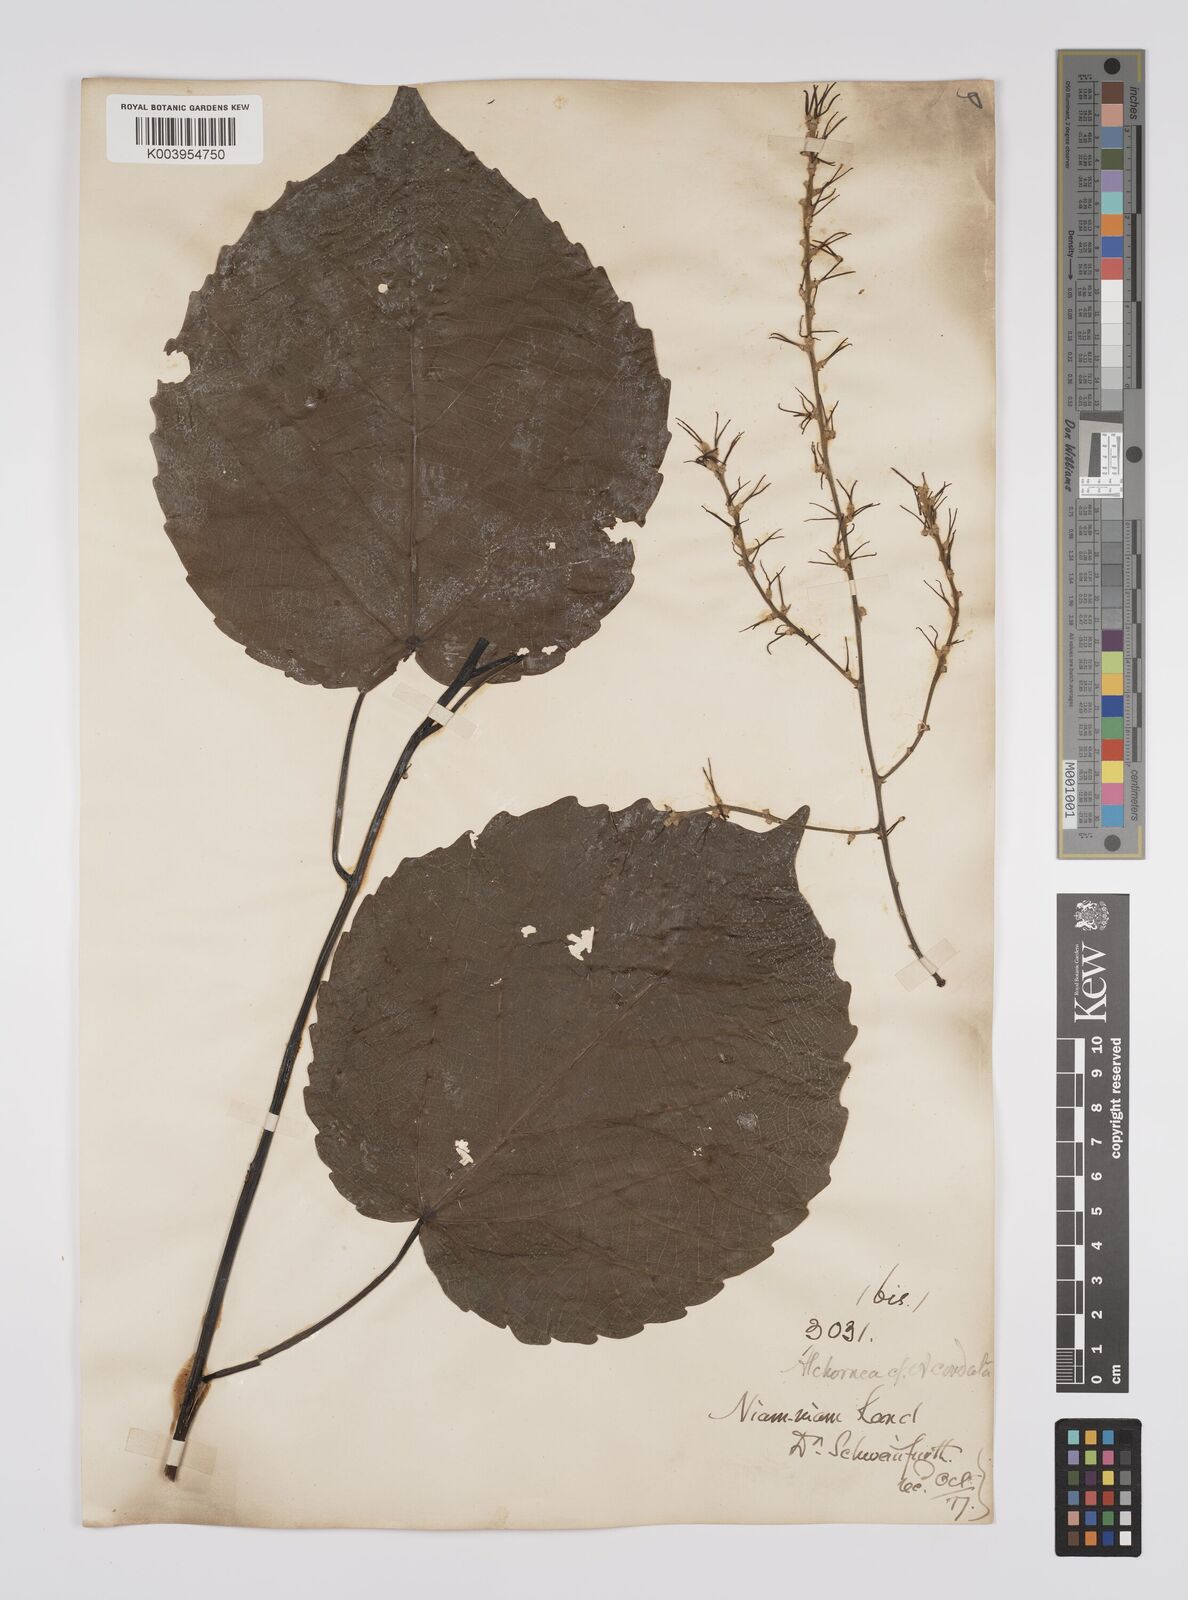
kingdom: Plantae
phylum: Tracheophyta
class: Magnoliopsida
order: Malpighiales
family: Euphorbiaceae
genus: Alchornea
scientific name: Alchornea cordifolia
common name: Christmasbush
